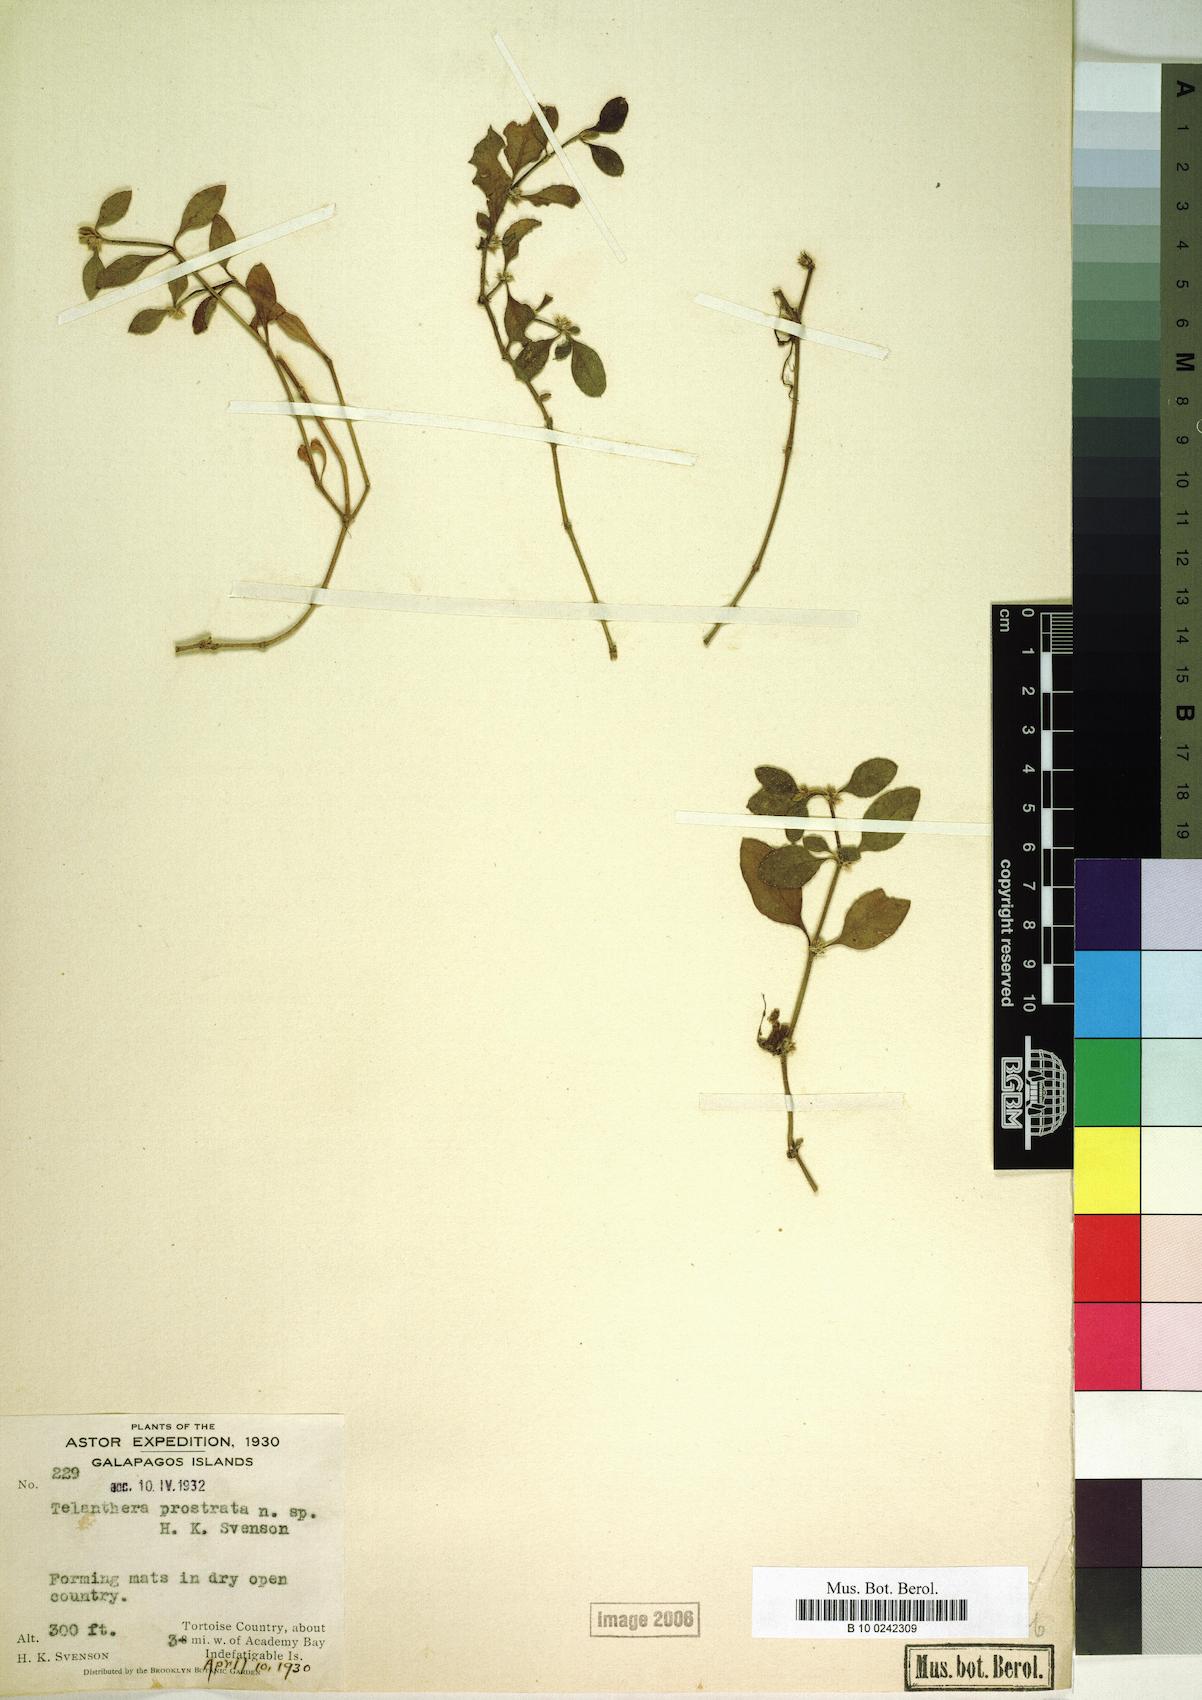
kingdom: Plantae
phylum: Tracheophyta
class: Magnoliopsida
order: Caryophyllales
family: Amaranthaceae
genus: Alternanthera
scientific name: Alternanthera sessilis
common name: Sessile joyweed
